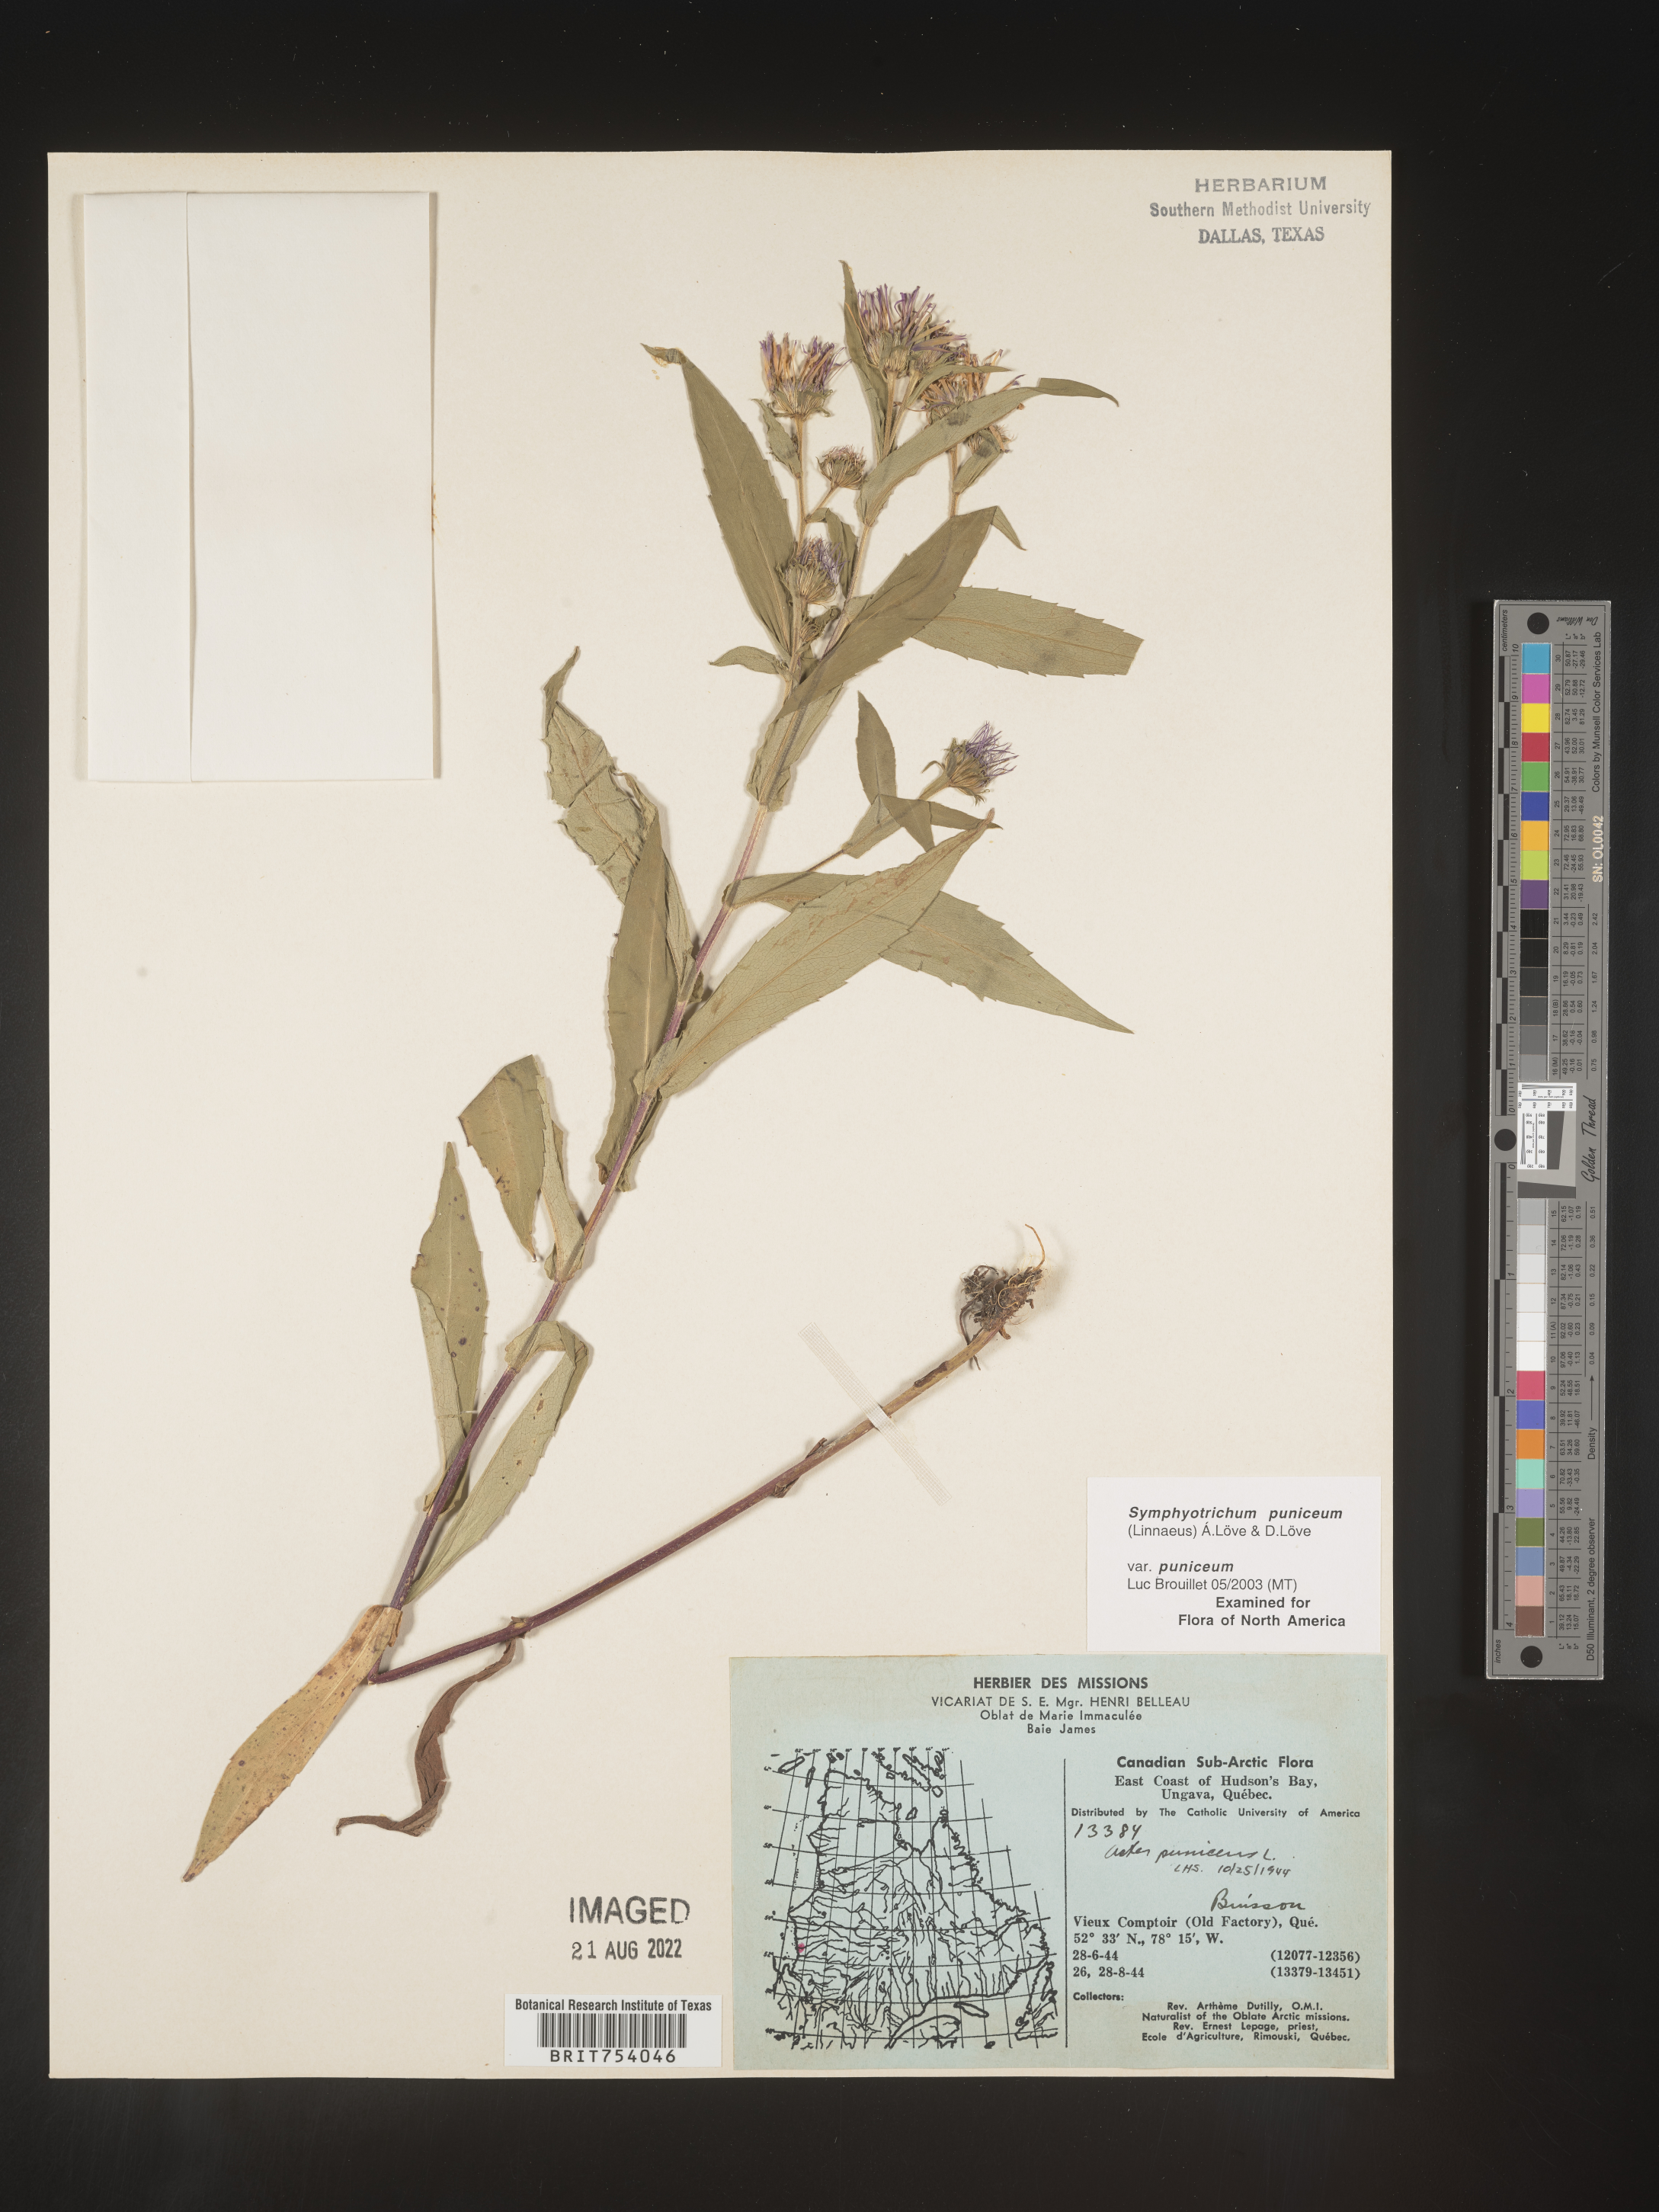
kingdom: Plantae
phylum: Tracheophyta
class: Magnoliopsida
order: Asterales
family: Asteraceae
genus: Symphyotrichum
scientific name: Symphyotrichum puniceum
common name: Bog aster
